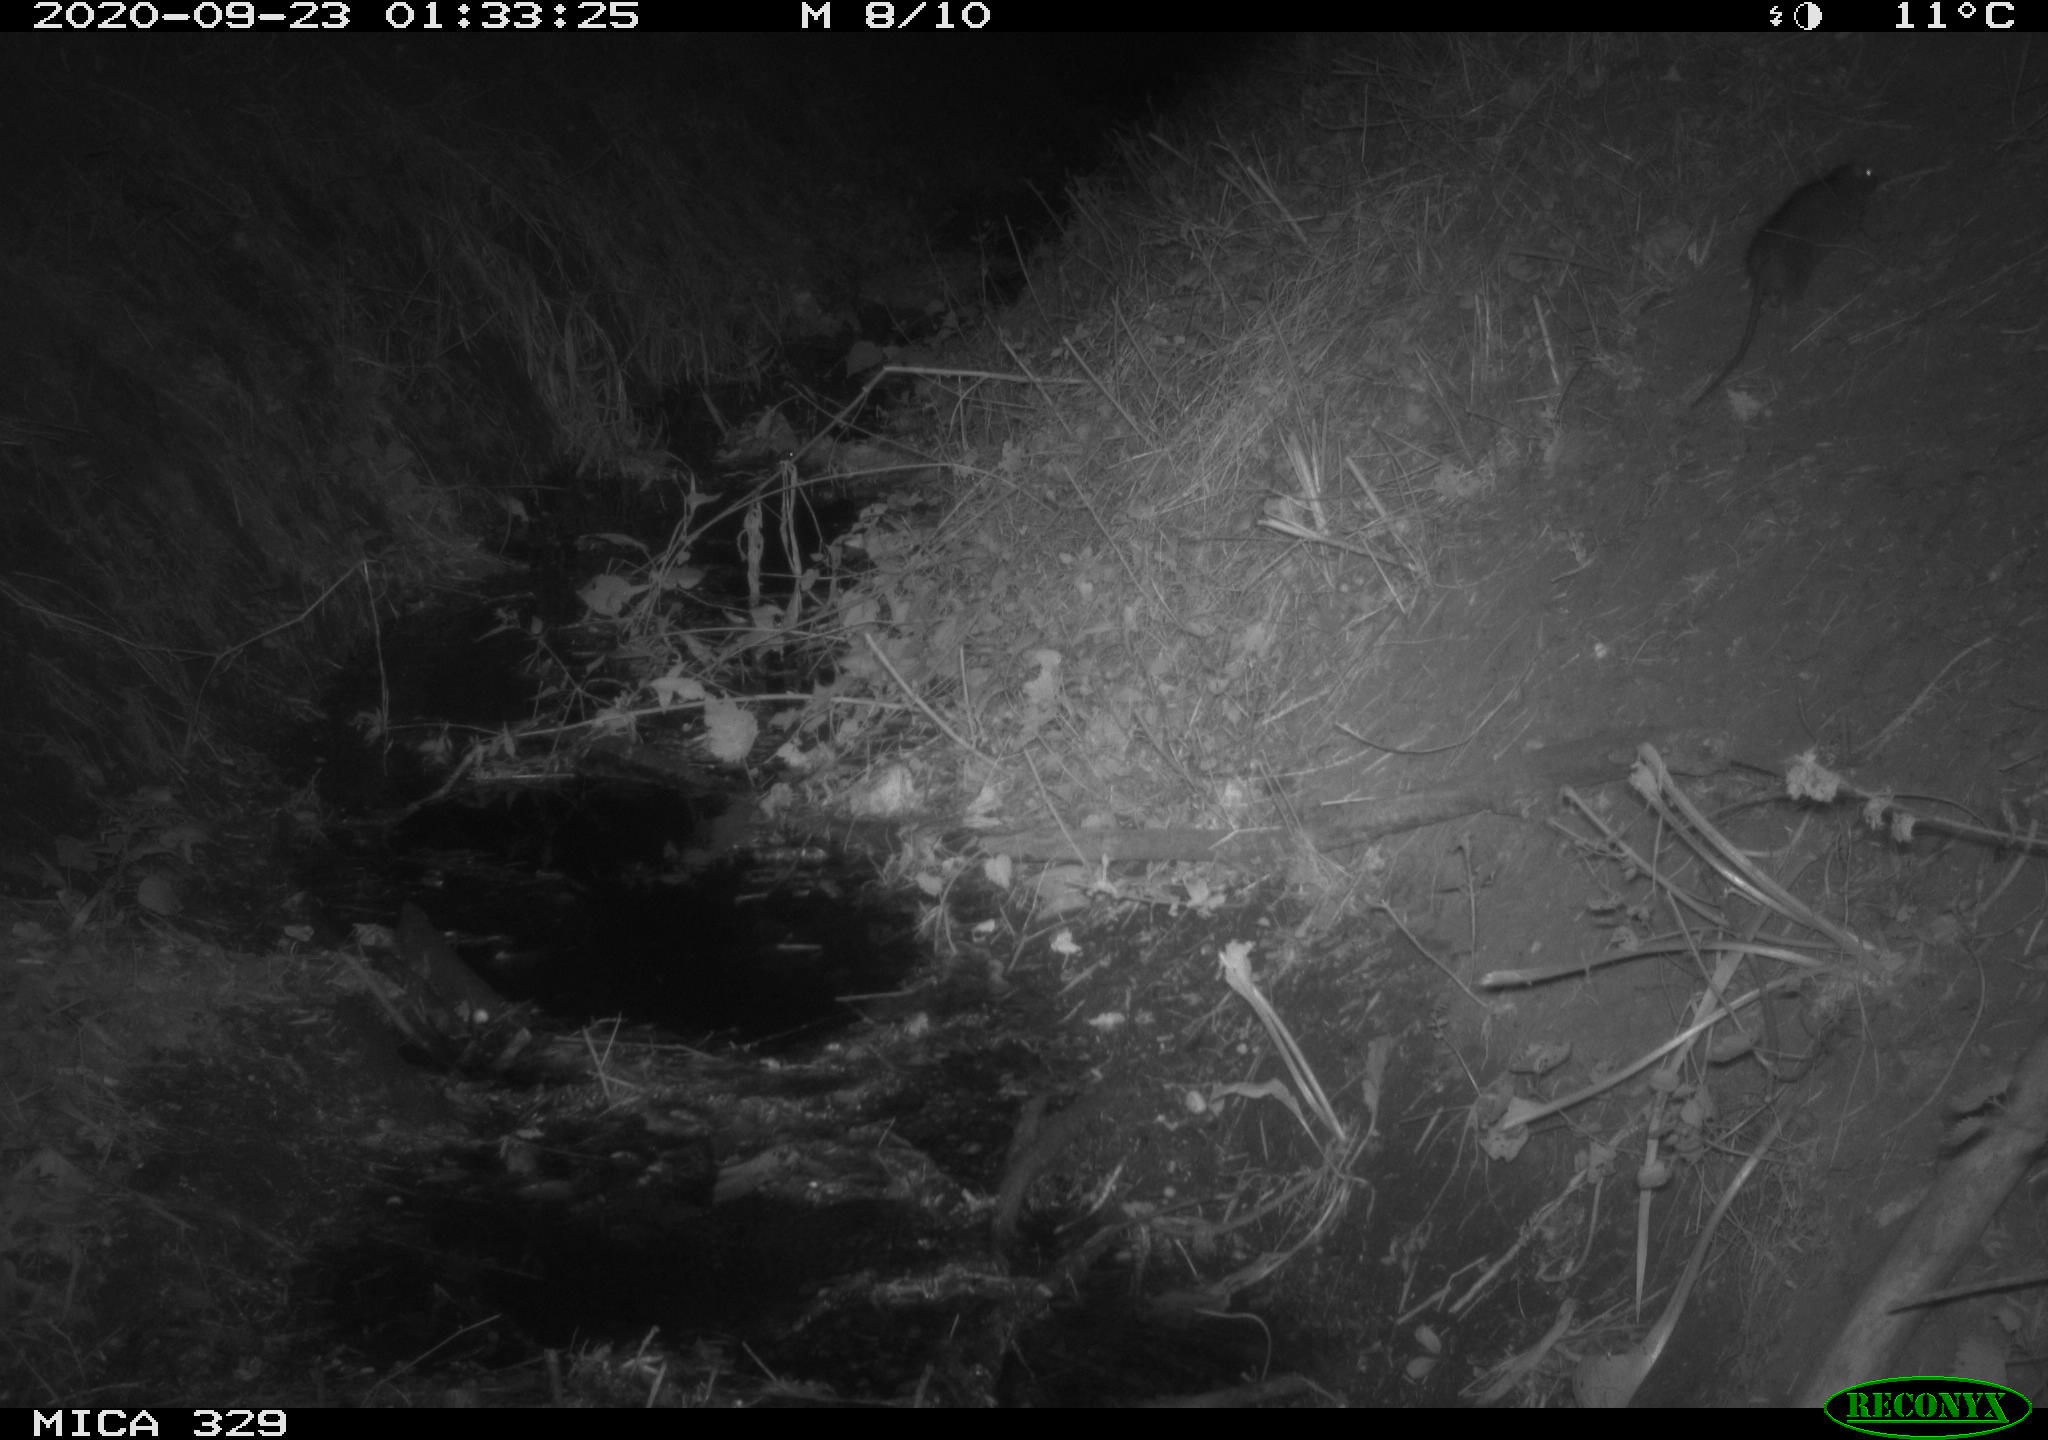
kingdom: Animalia
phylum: Chordata
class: Mammalia
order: Rodentia
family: Muridae
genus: Rattus
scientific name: Rattus norvegicus
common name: Brown rat
